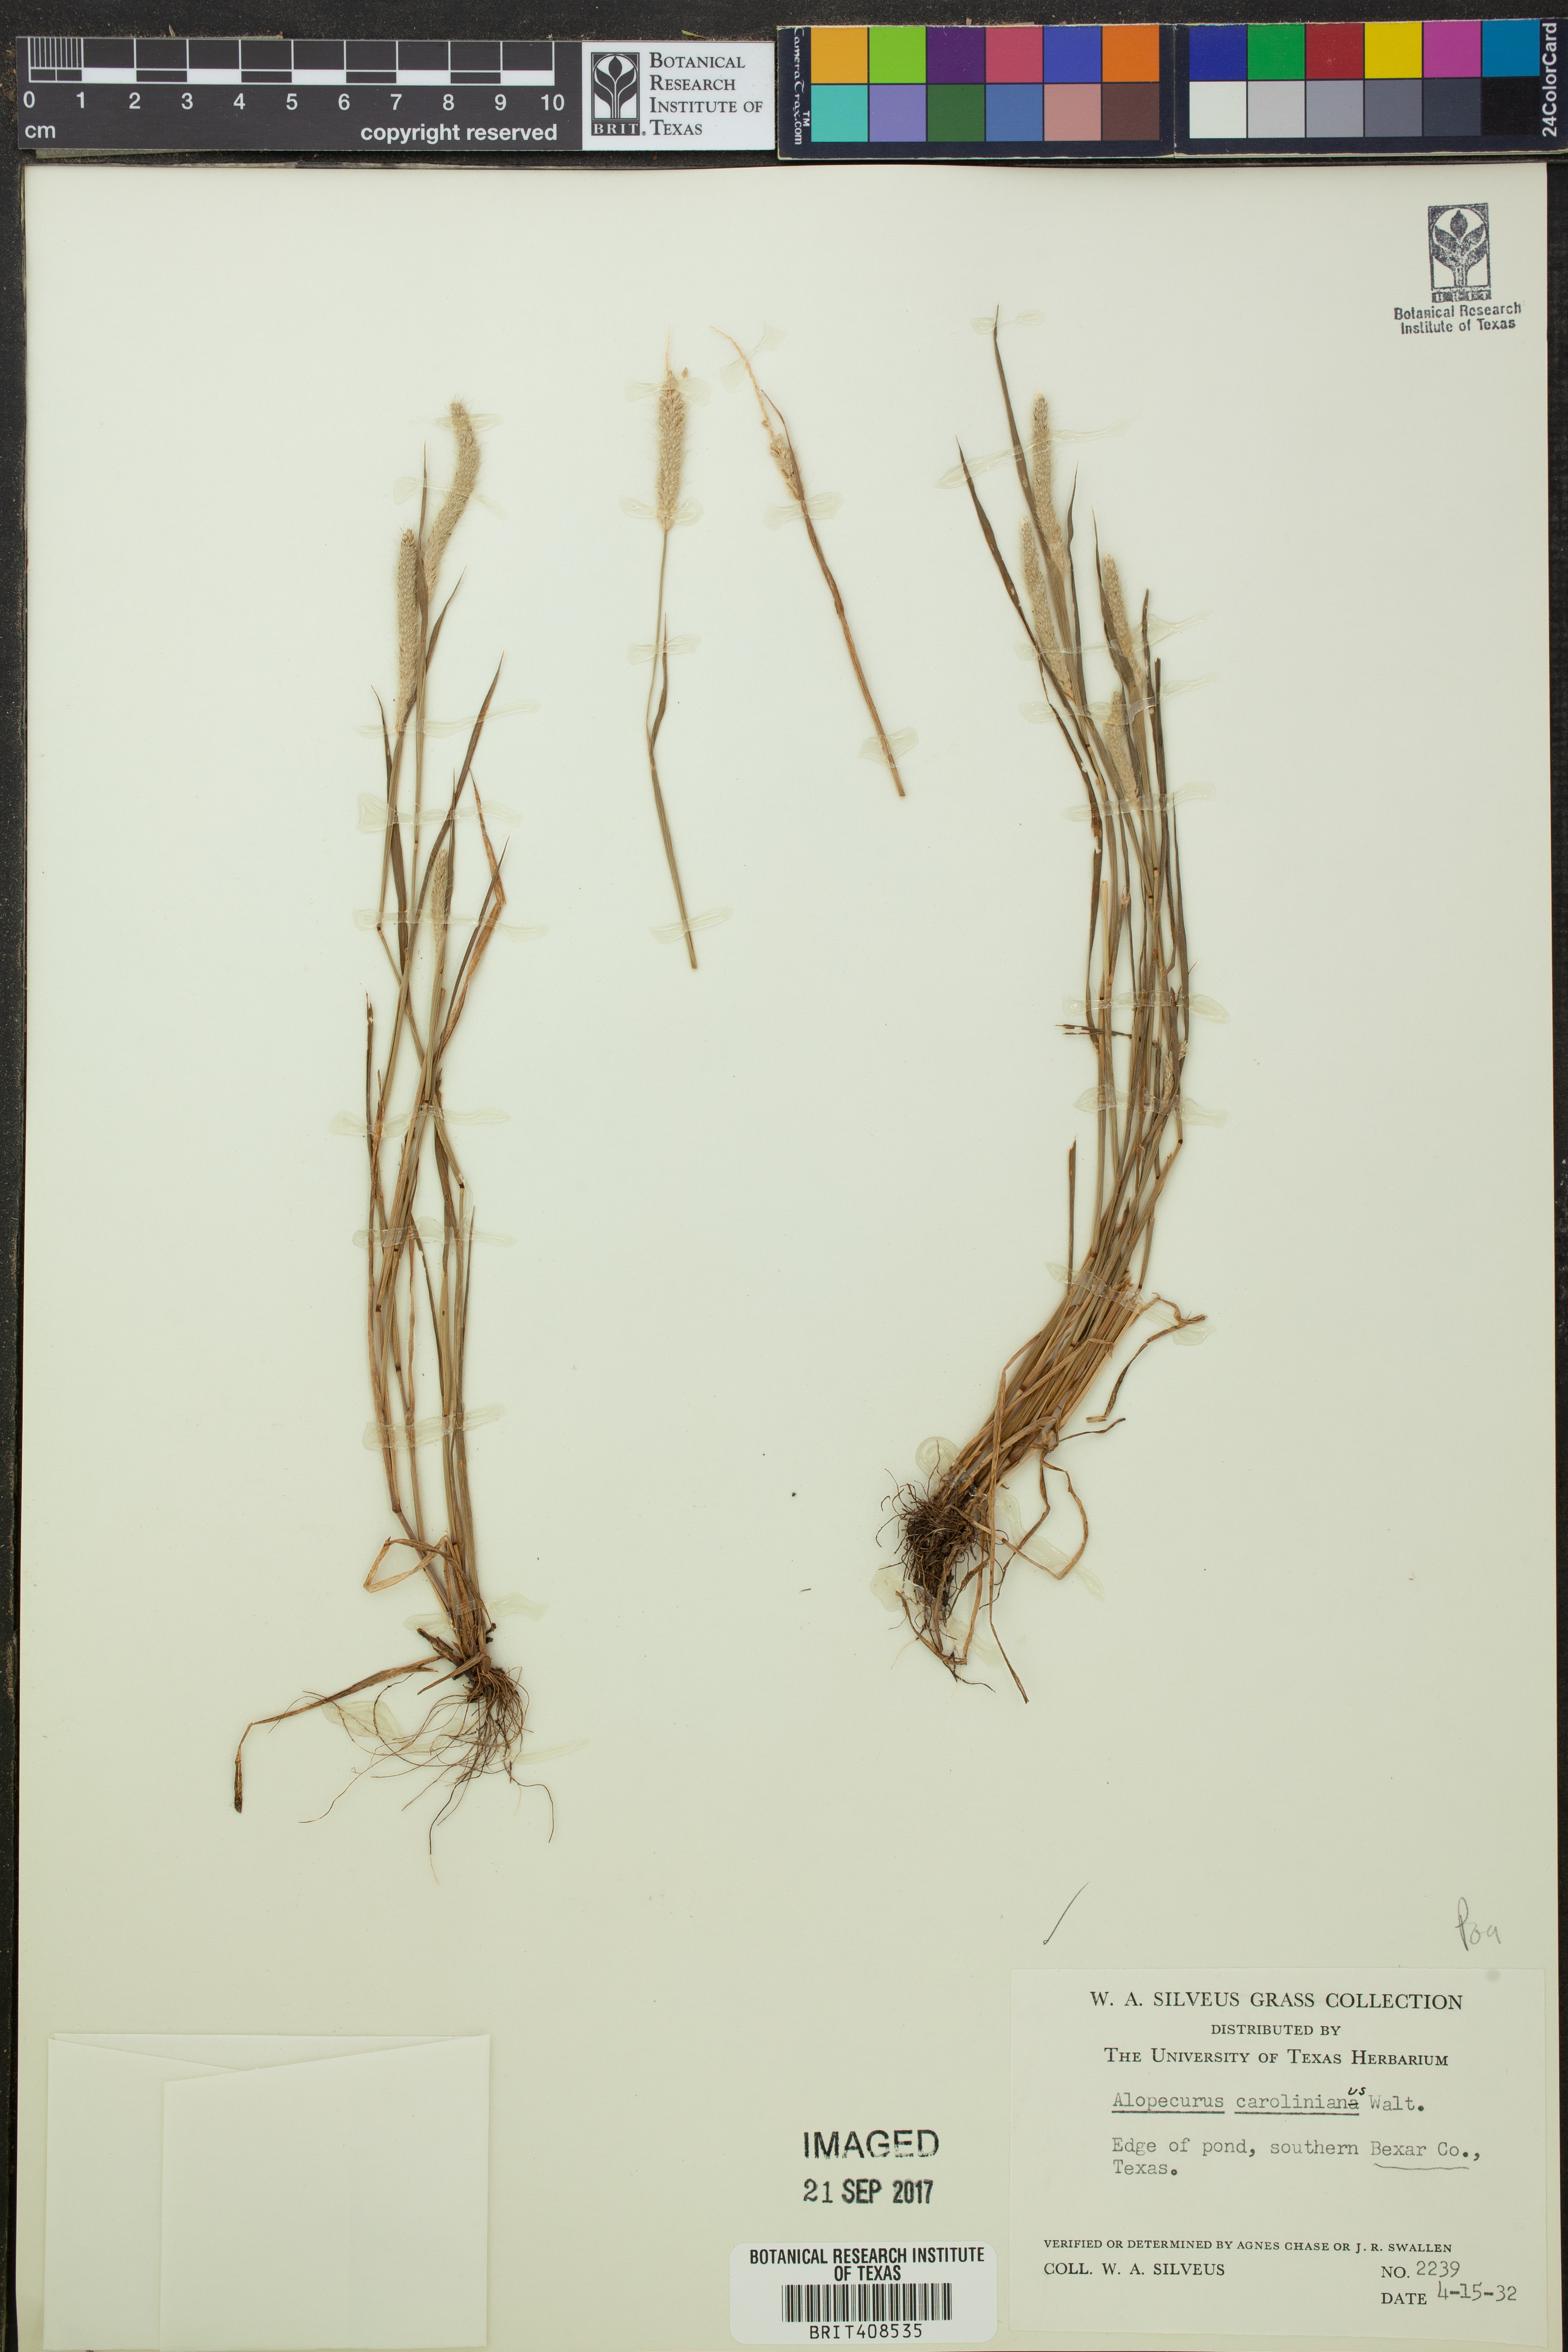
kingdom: Plantae
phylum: Tracheophyta
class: Liliopsida
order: Poales
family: Poaceae
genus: Alopecurus
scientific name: Alopecurus carolinianus
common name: Tufted foxtail
